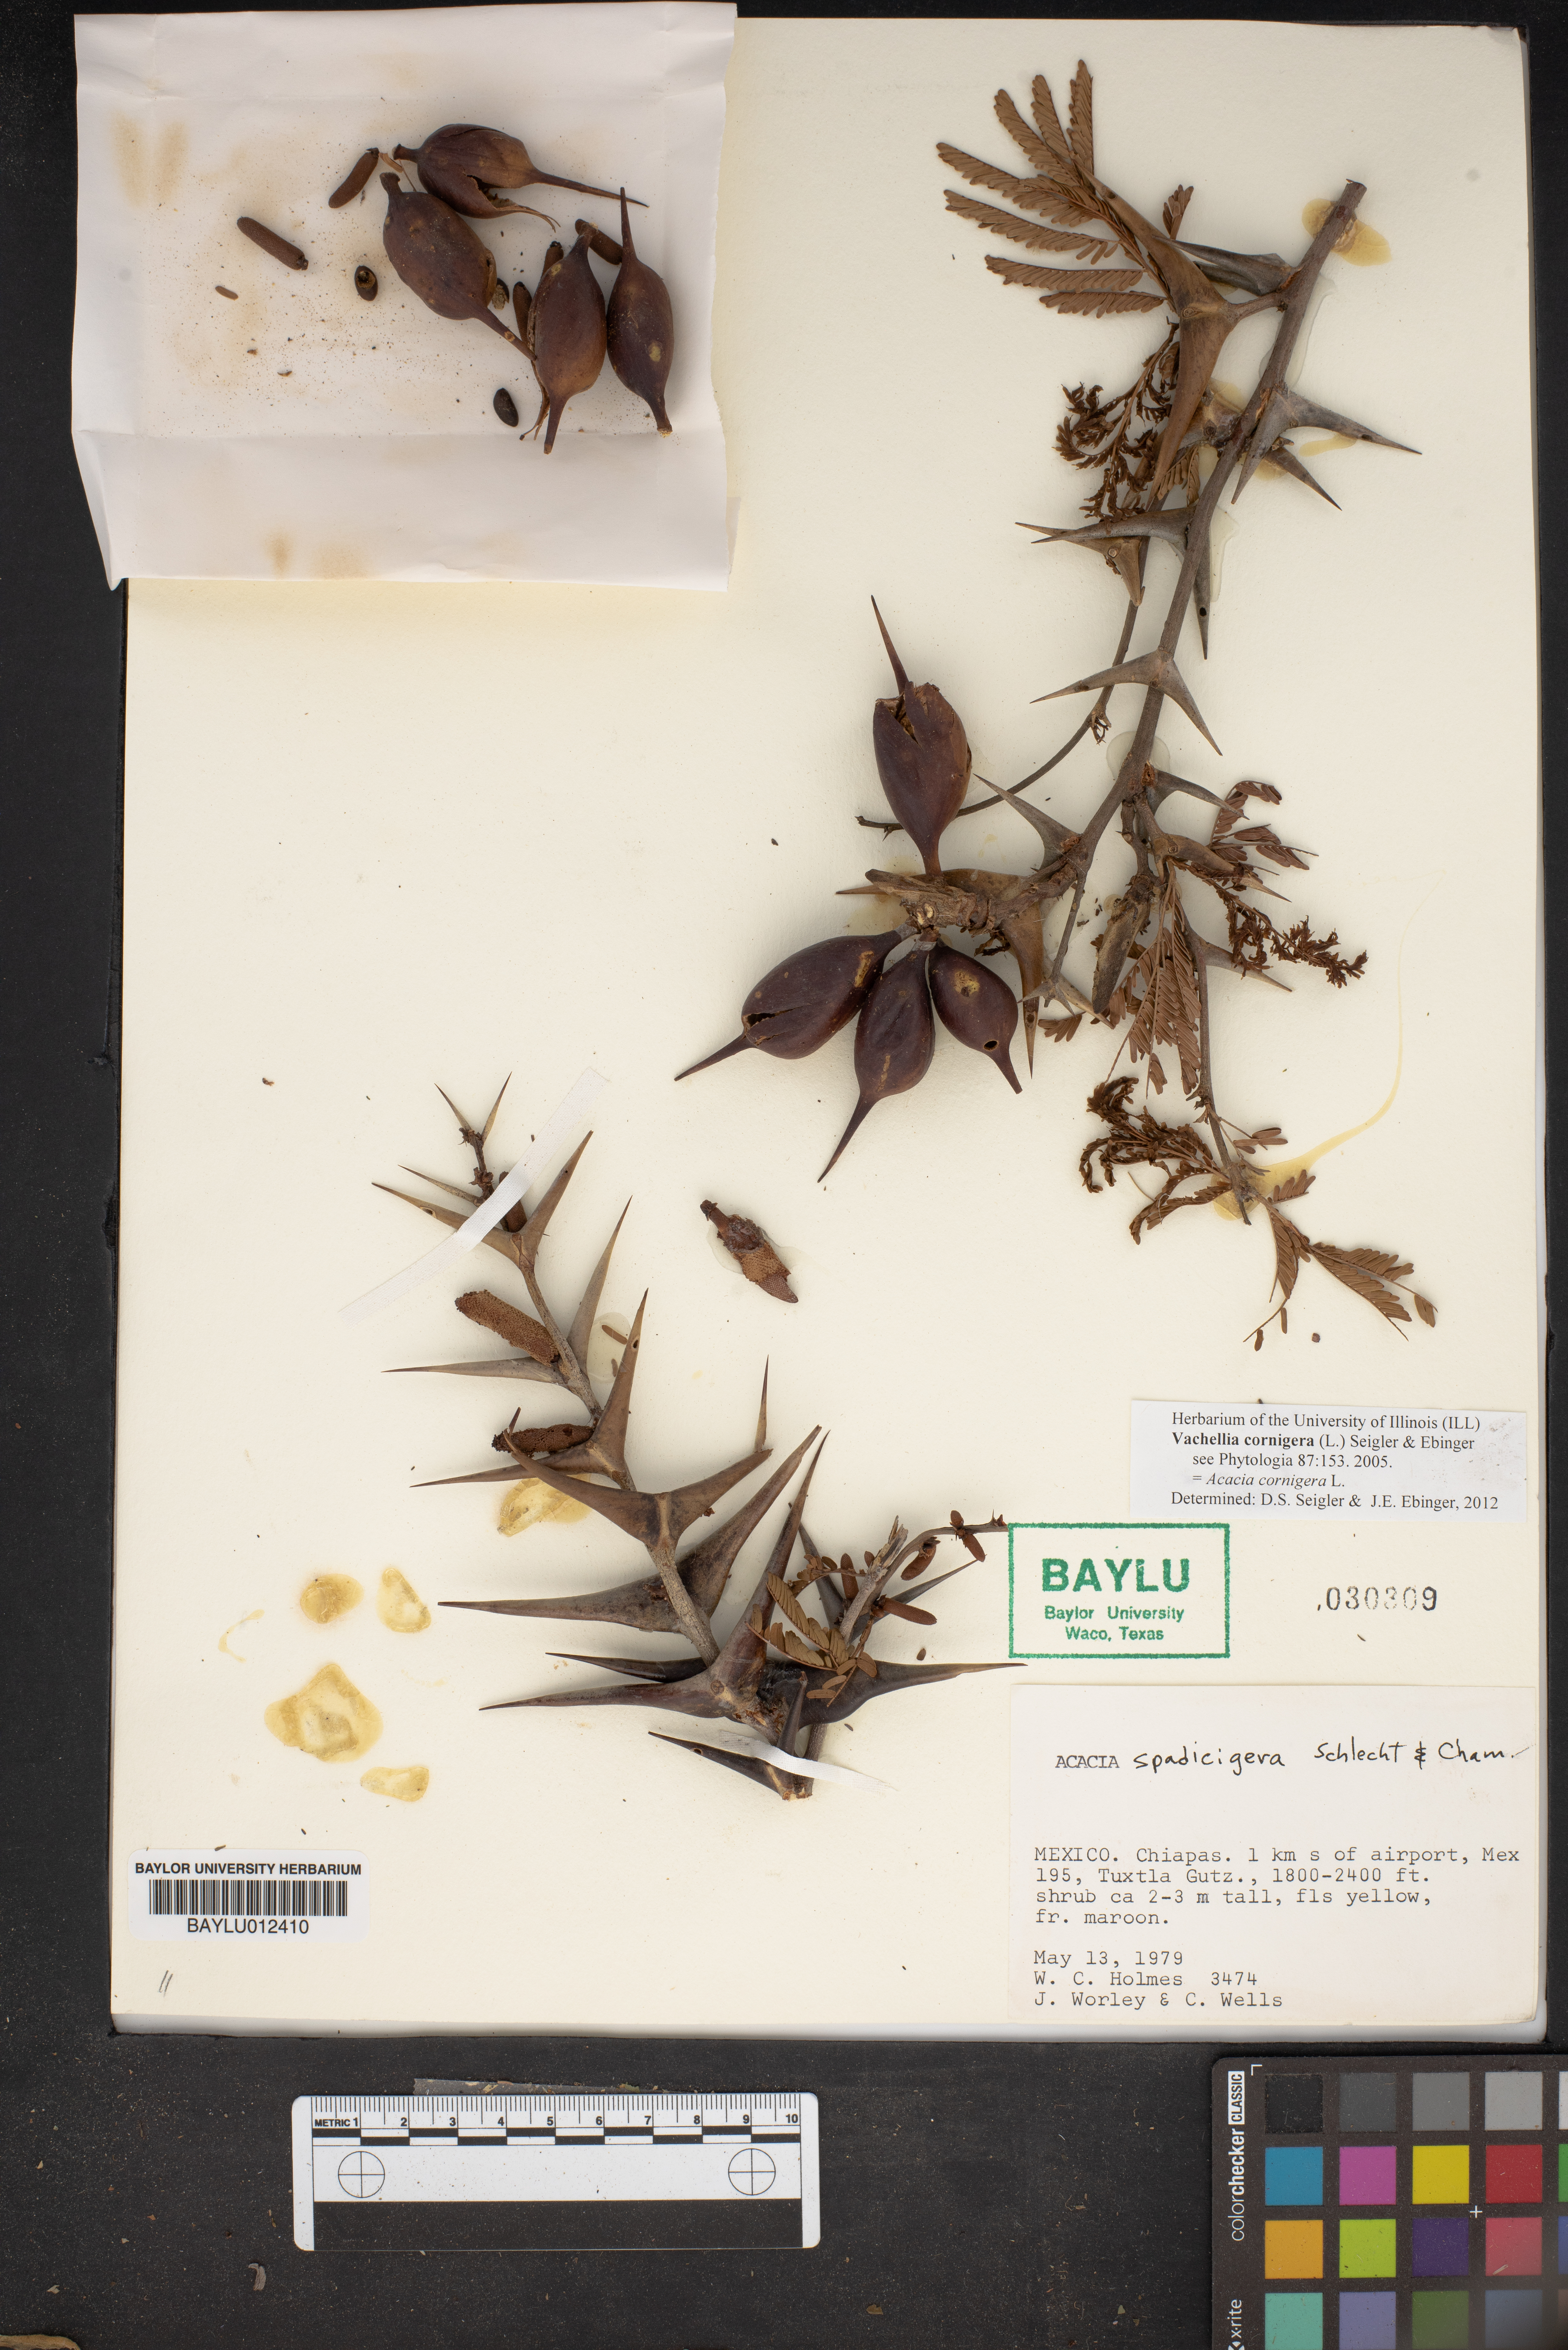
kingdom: Plantae
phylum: Tracheophyta
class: Magnoliopsida
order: Fabales
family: Fabaceae
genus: Vachellia
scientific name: Vachellia cornigera
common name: Bullhorn wattle
